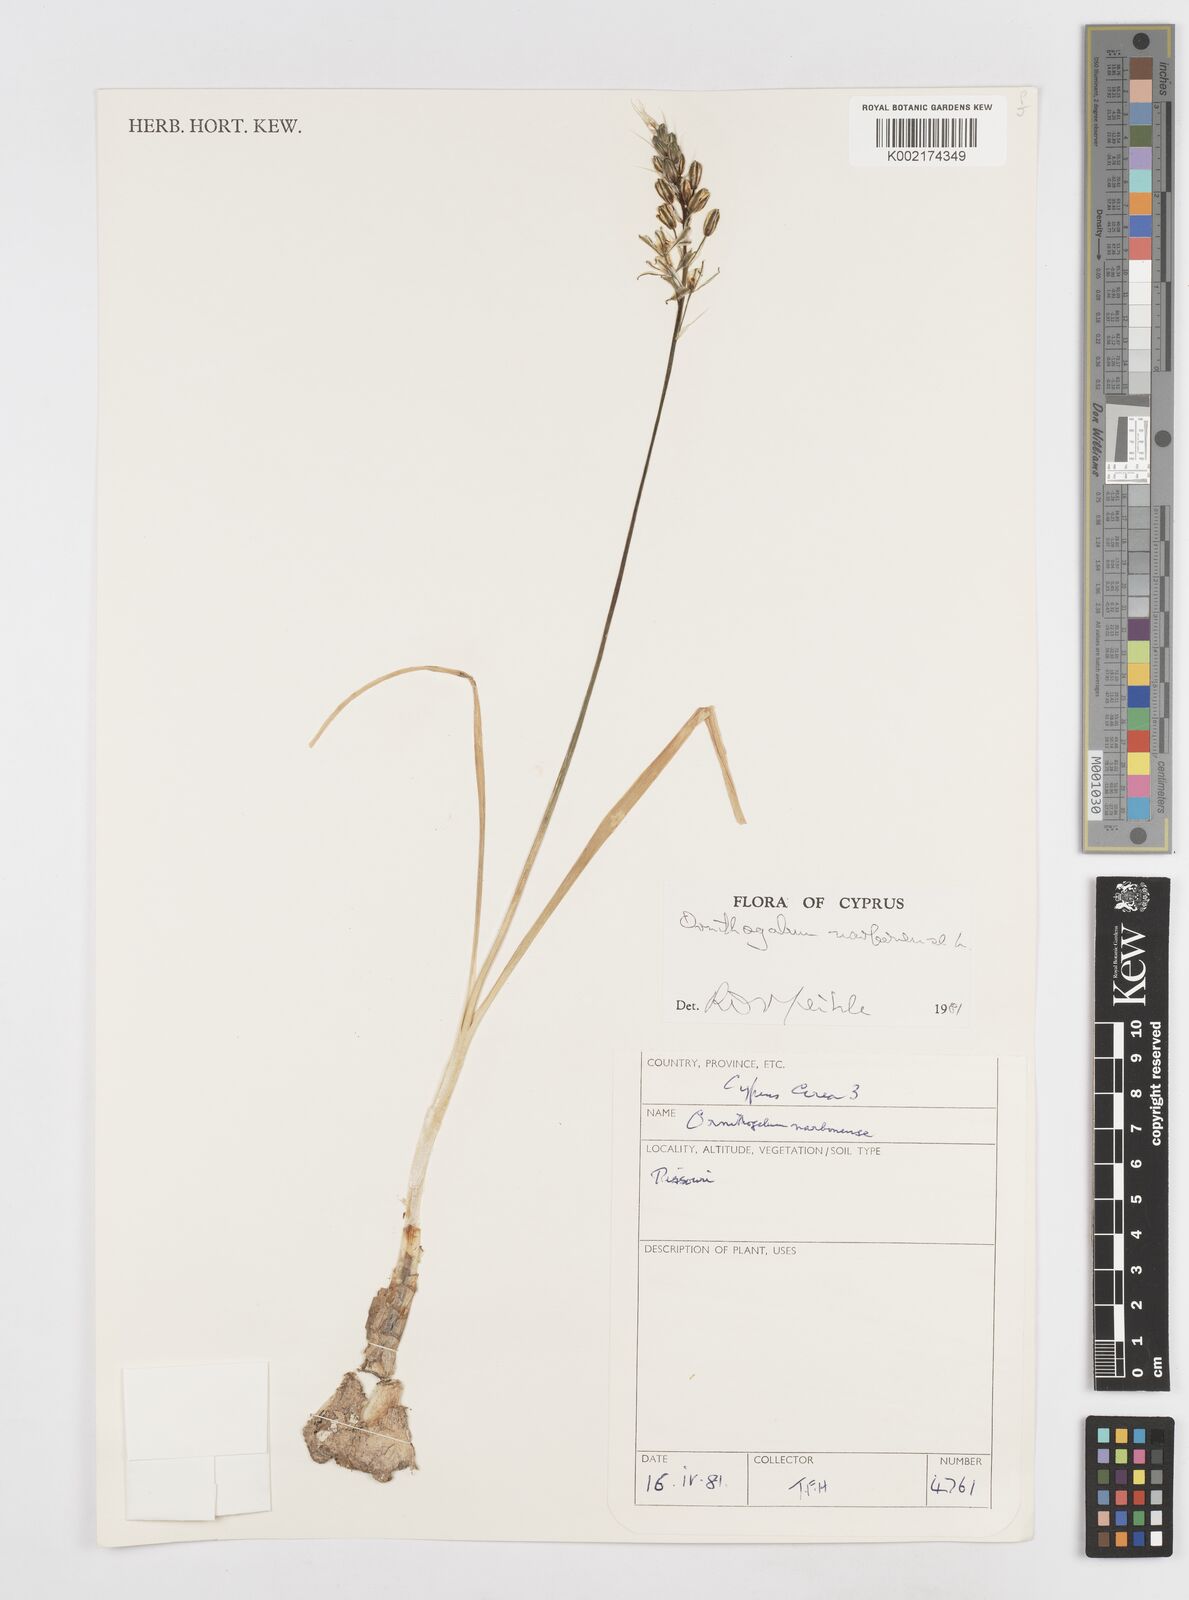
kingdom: Plantae
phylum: Tracheophyta
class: Liliopsida
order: Asparagales
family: Asparagaceae
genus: Ornithogalum
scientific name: Ornithogalum narbonense
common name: Bath-asparagus
